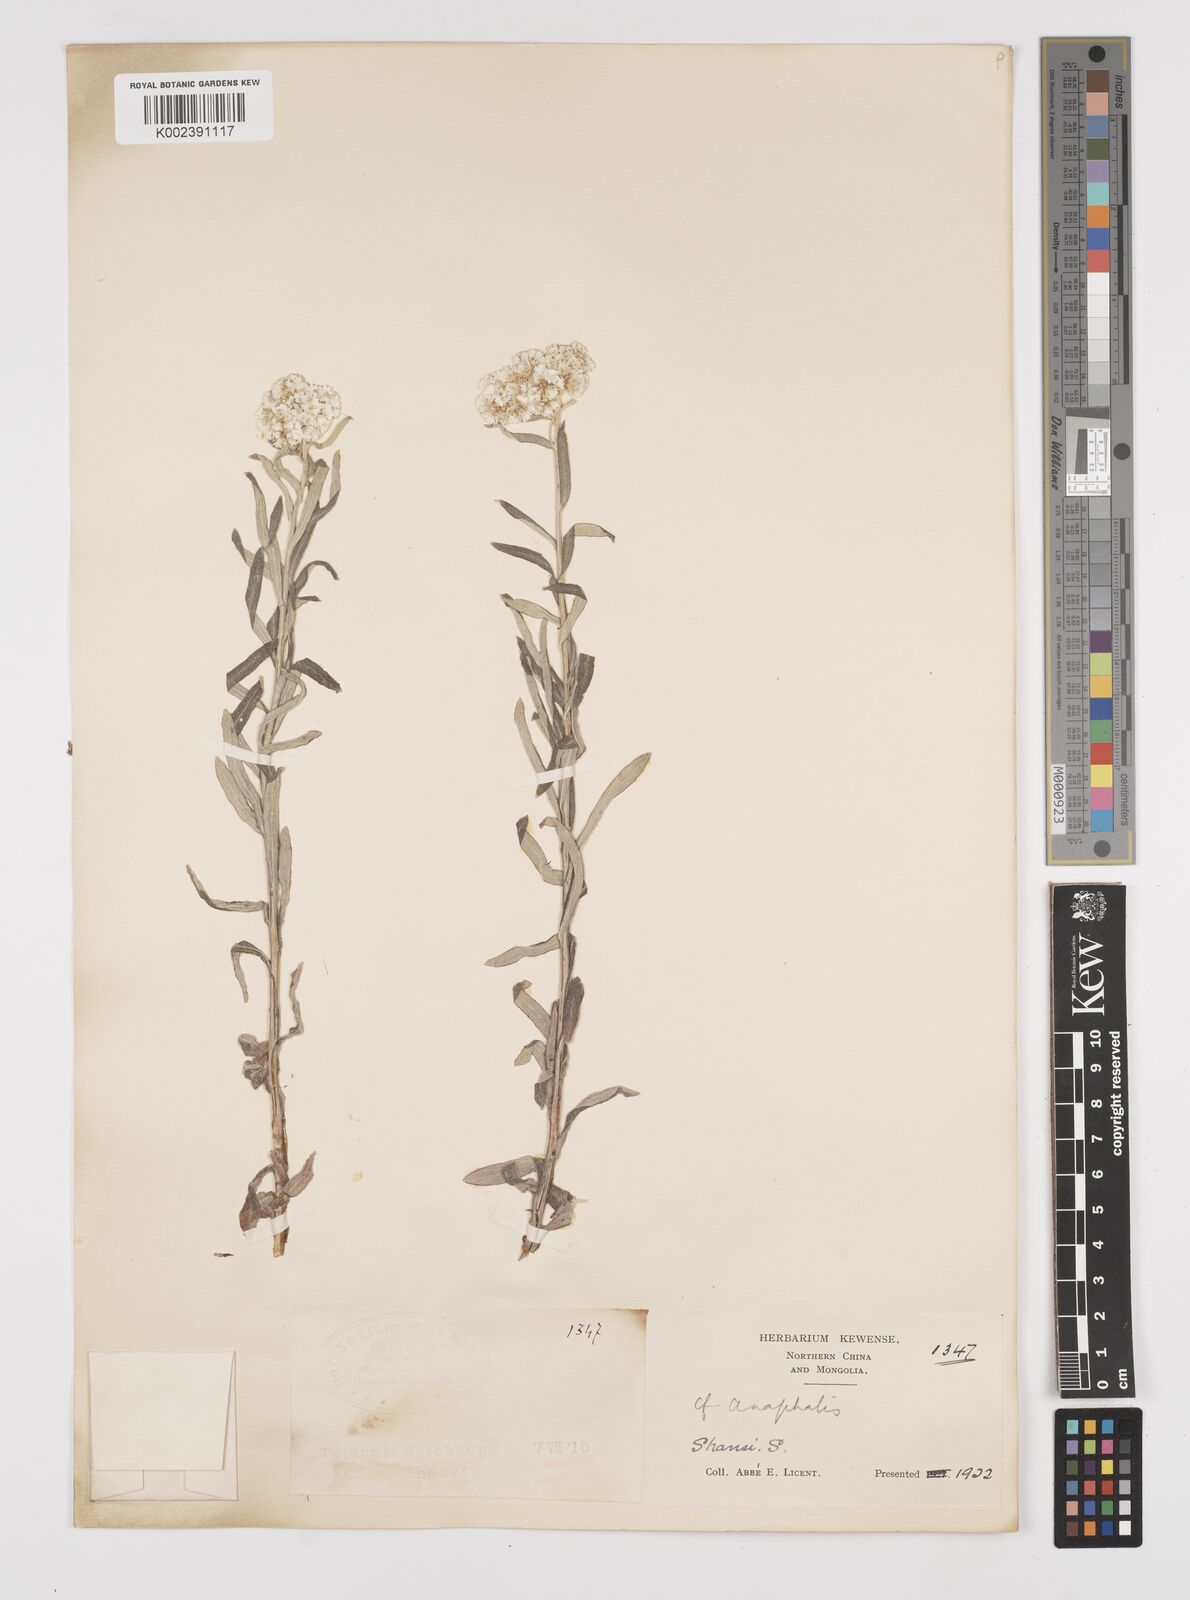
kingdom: Plantae
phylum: Tracheophyta
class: Magnoliopsida
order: Asterales
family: Asteraceae
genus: Anaphalis
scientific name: Anaphalis margaritacea
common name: Pearly everlasting
